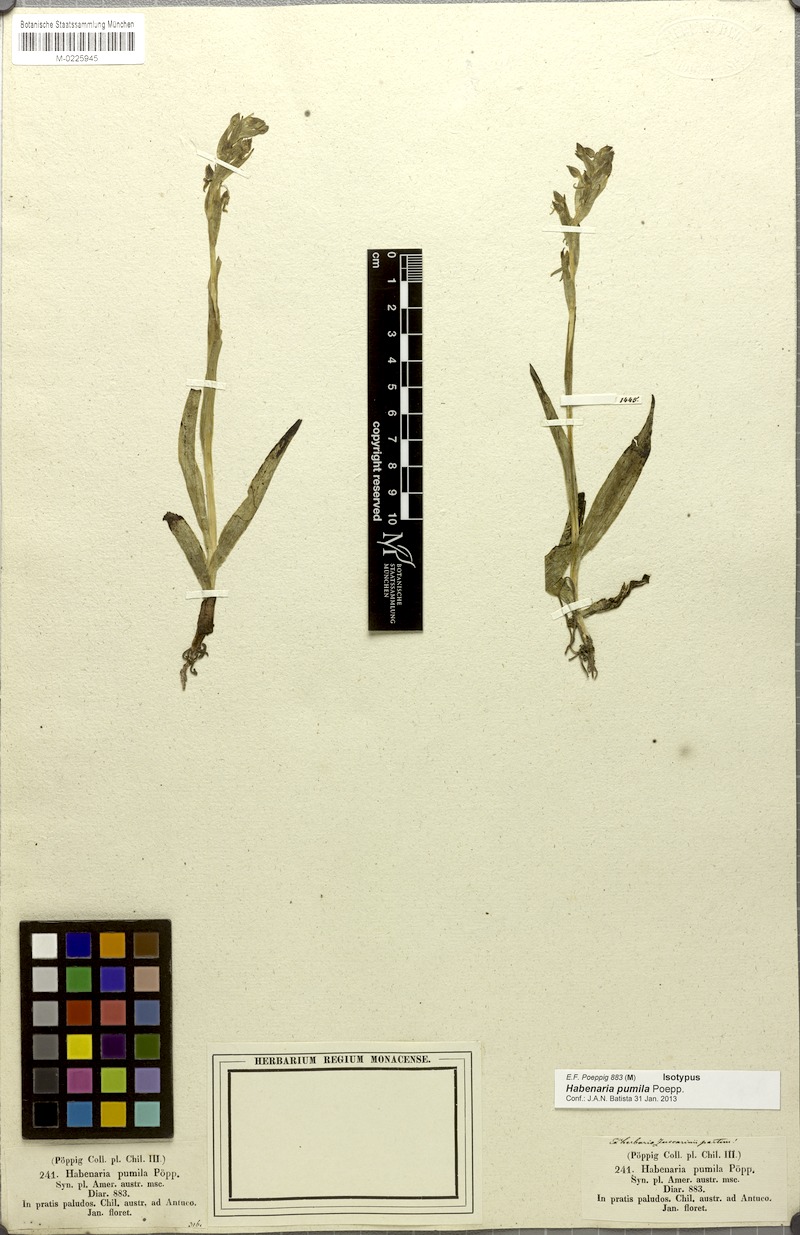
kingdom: Plantae
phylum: Tracheophyta
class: Liliopsida
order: Asparagales
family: Orchidaceae
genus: Habenaria
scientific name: Habenaria pumila
